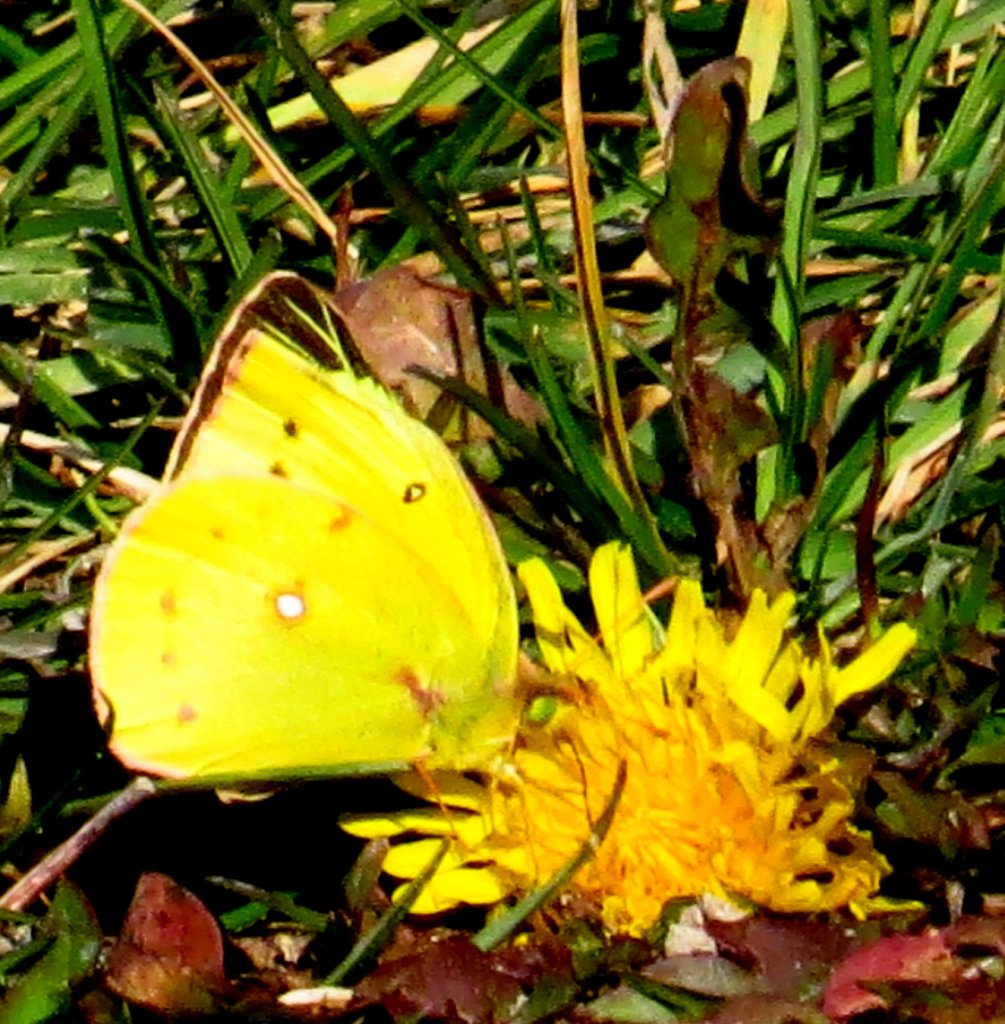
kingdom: Animalia
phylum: Arthropoda
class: Insecta
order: Lepidoptera
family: Pieridae
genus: Colias
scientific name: Colias eurytheme
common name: Orange Sulphur
